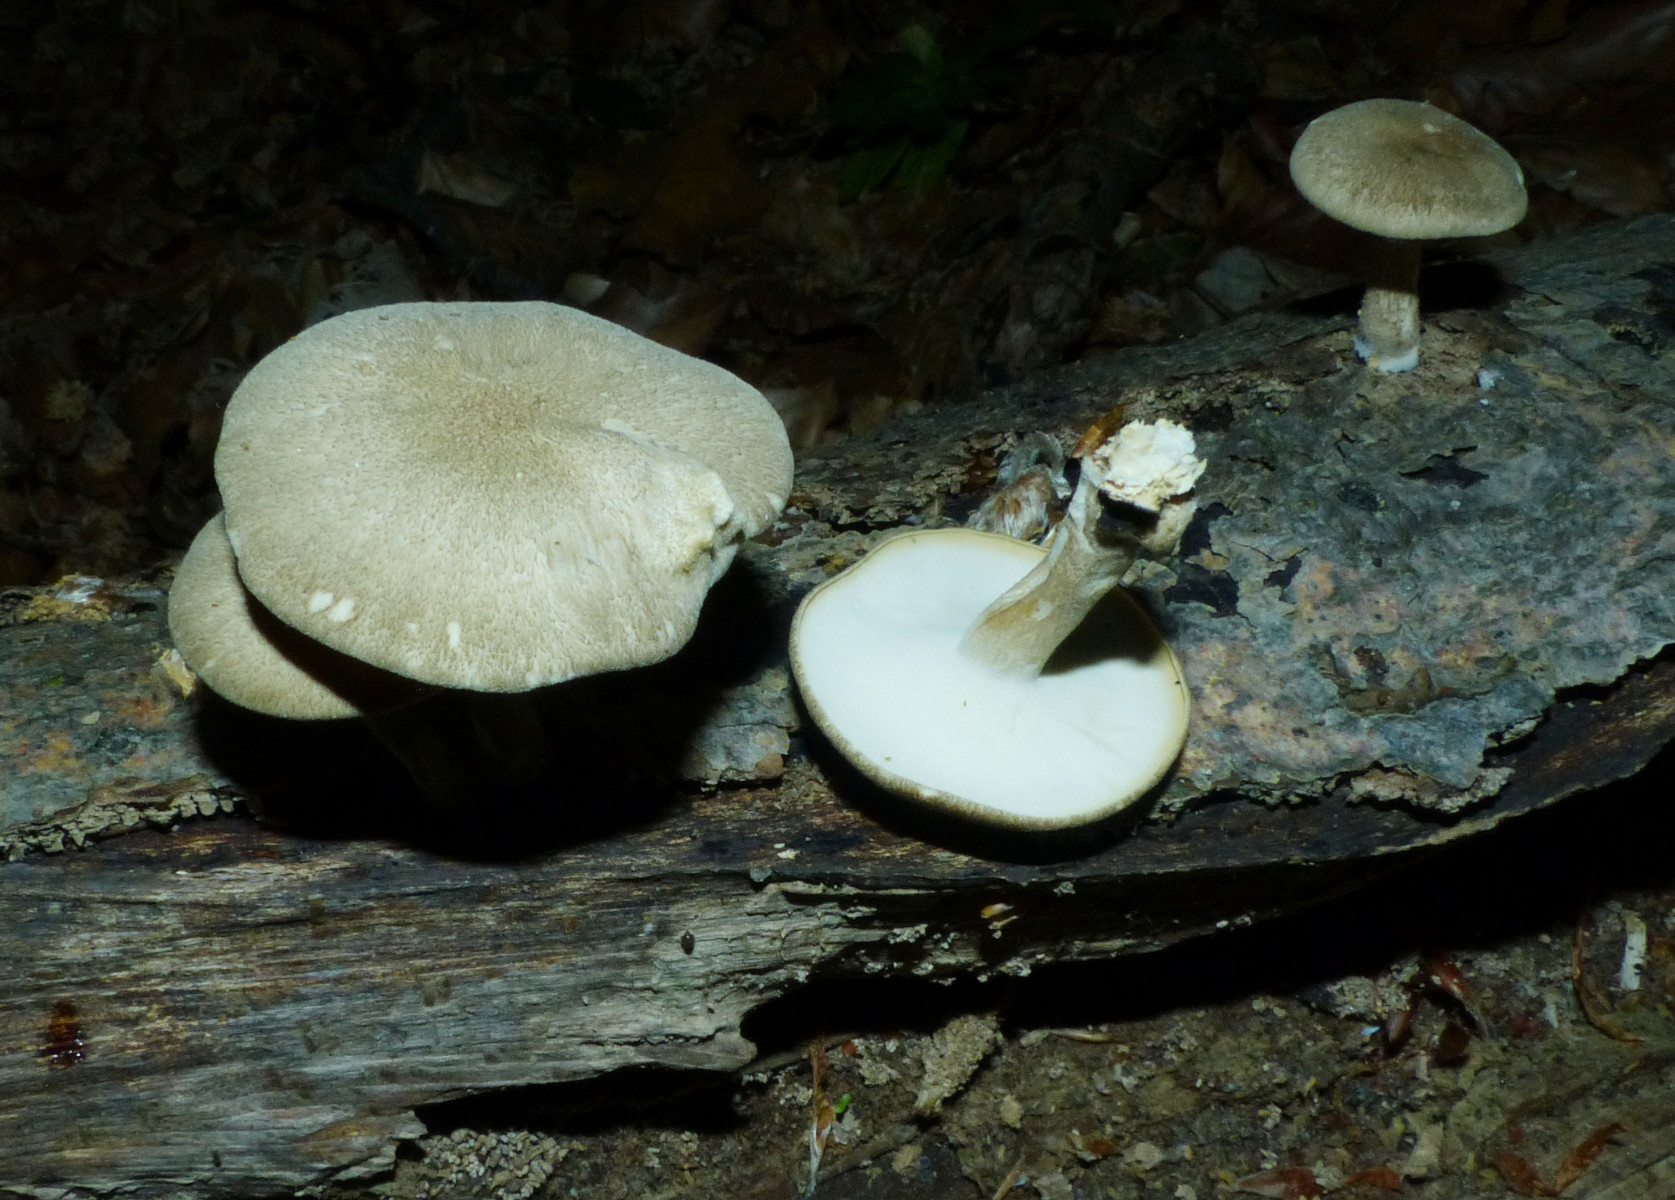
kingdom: Fungi
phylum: Basidiomycota
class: Agaricomycetes
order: Polyporales
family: Polyporaceae
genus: Lentinus
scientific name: Lentinus substrictus
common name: forårs-stilkporesvamp
